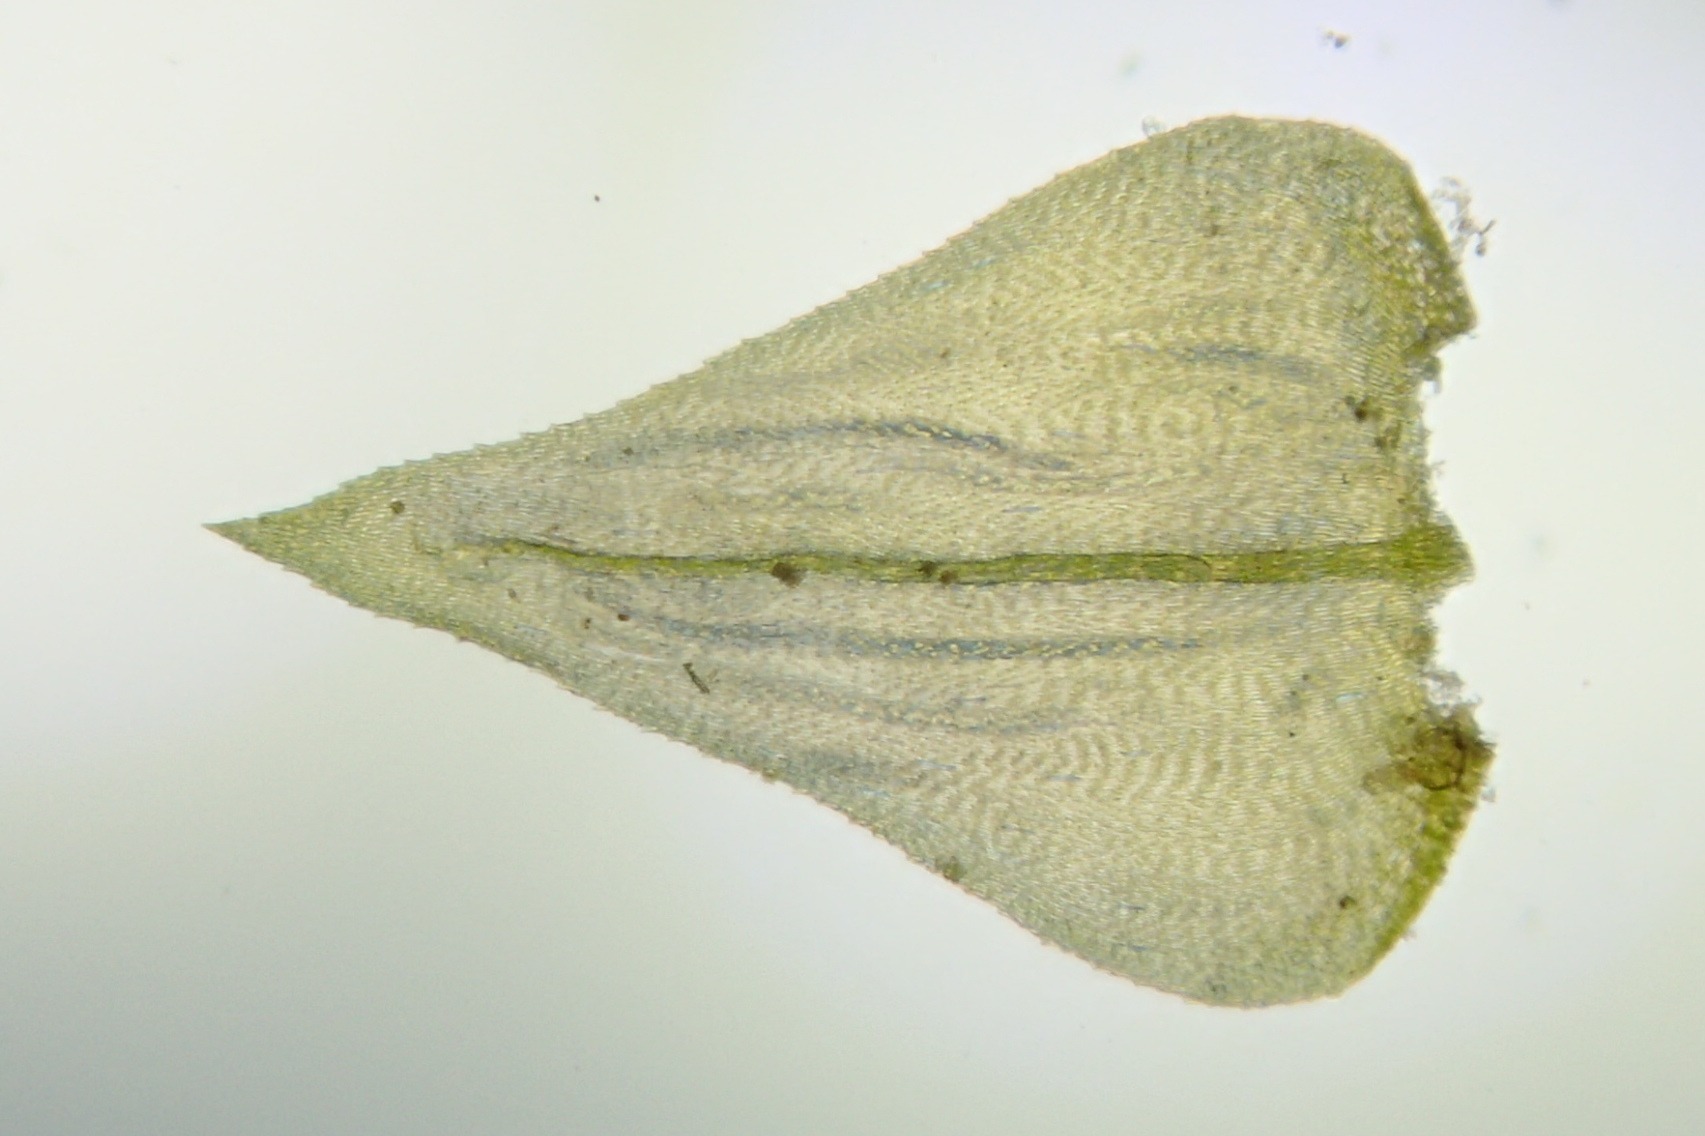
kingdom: Plantae
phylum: Bryophyta
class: Bryopsida
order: Hypnales
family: Brachytheciaceae
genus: Eurhynchium
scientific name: Eurhynchium striatum
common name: Stribet næbmos
